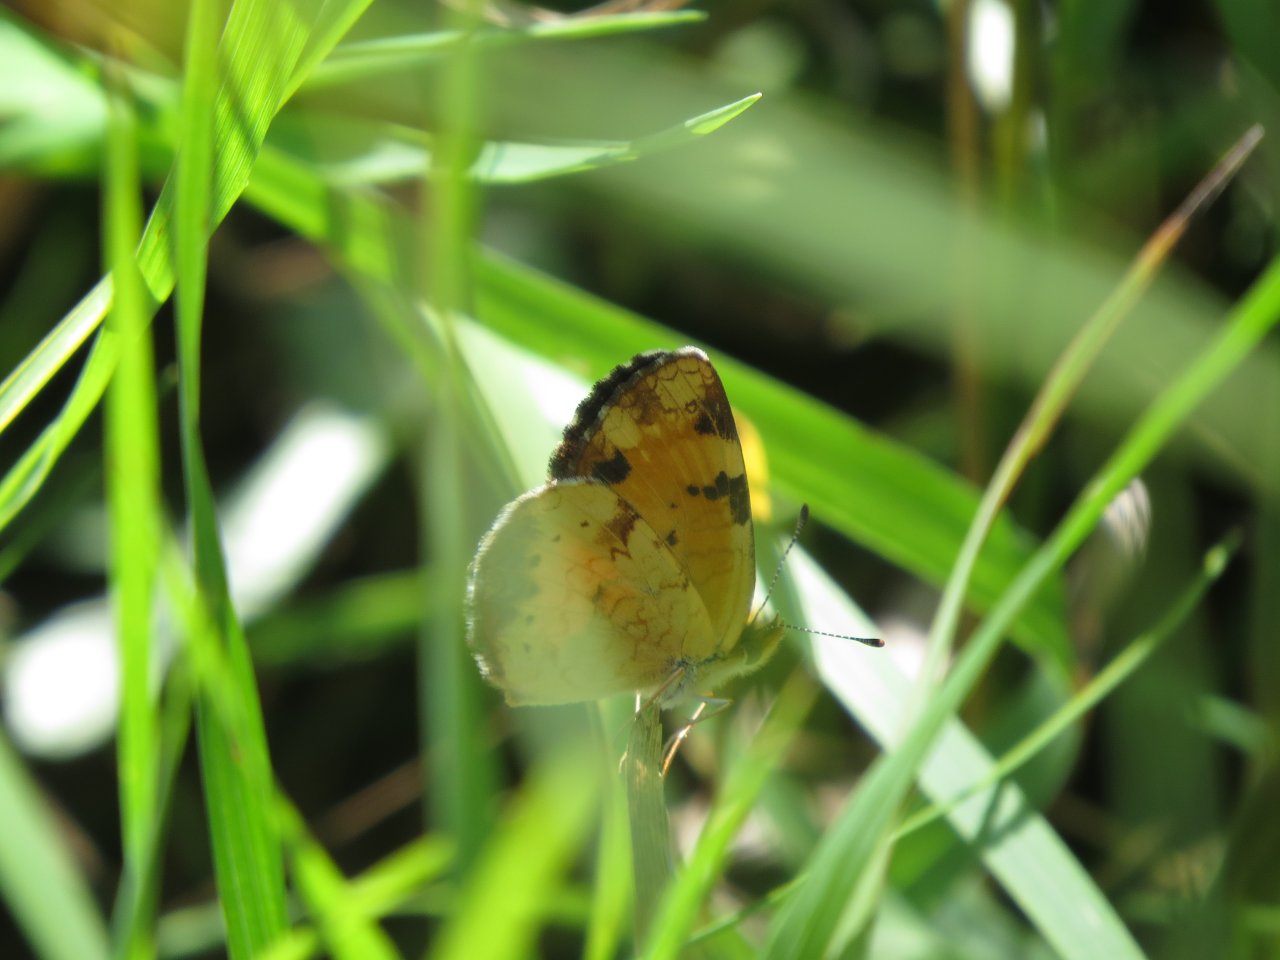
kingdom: Animalia
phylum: Arthropoda
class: Insecta
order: Lepidoptera
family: Nymphalidae
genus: Phyciodes
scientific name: Phyciodes tharos
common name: Northern Crescent
